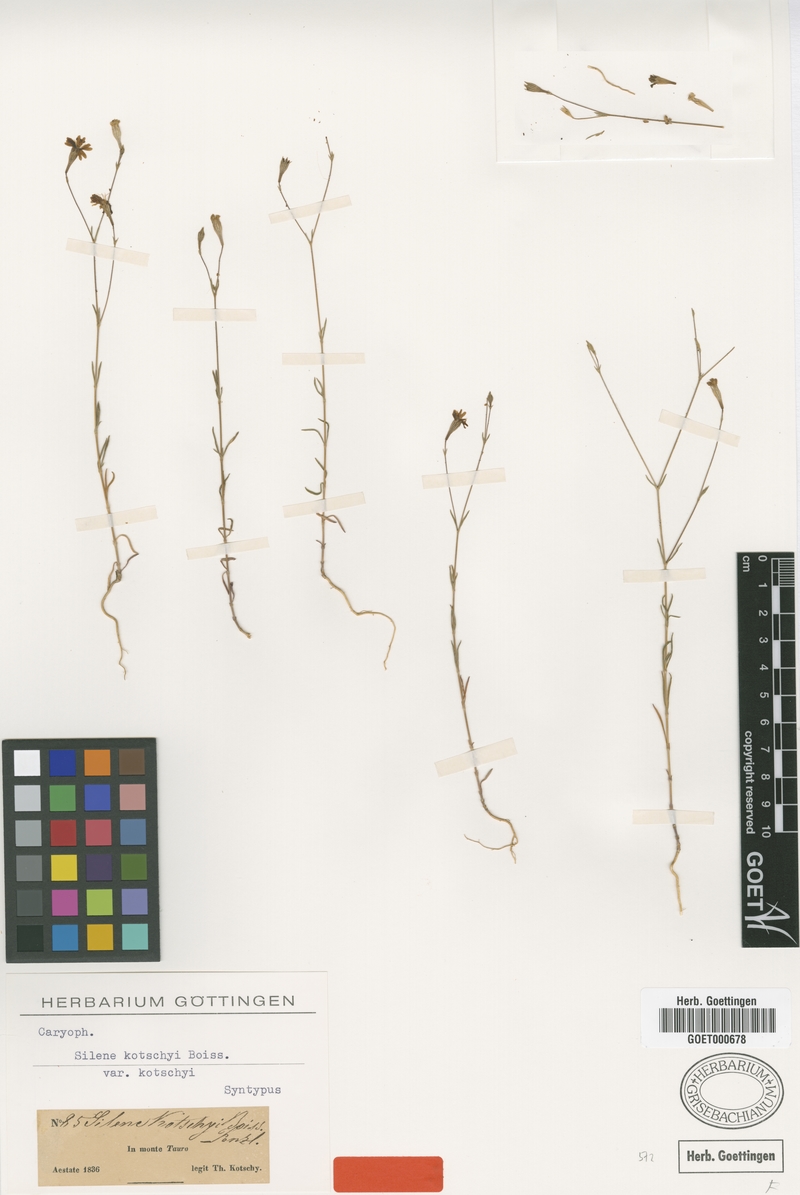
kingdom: Plantae
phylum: Tracheophyta
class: Magnoliopsida
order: Caryophyllales
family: Caryophyllaceae
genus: Silene
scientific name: Silene microsperma
